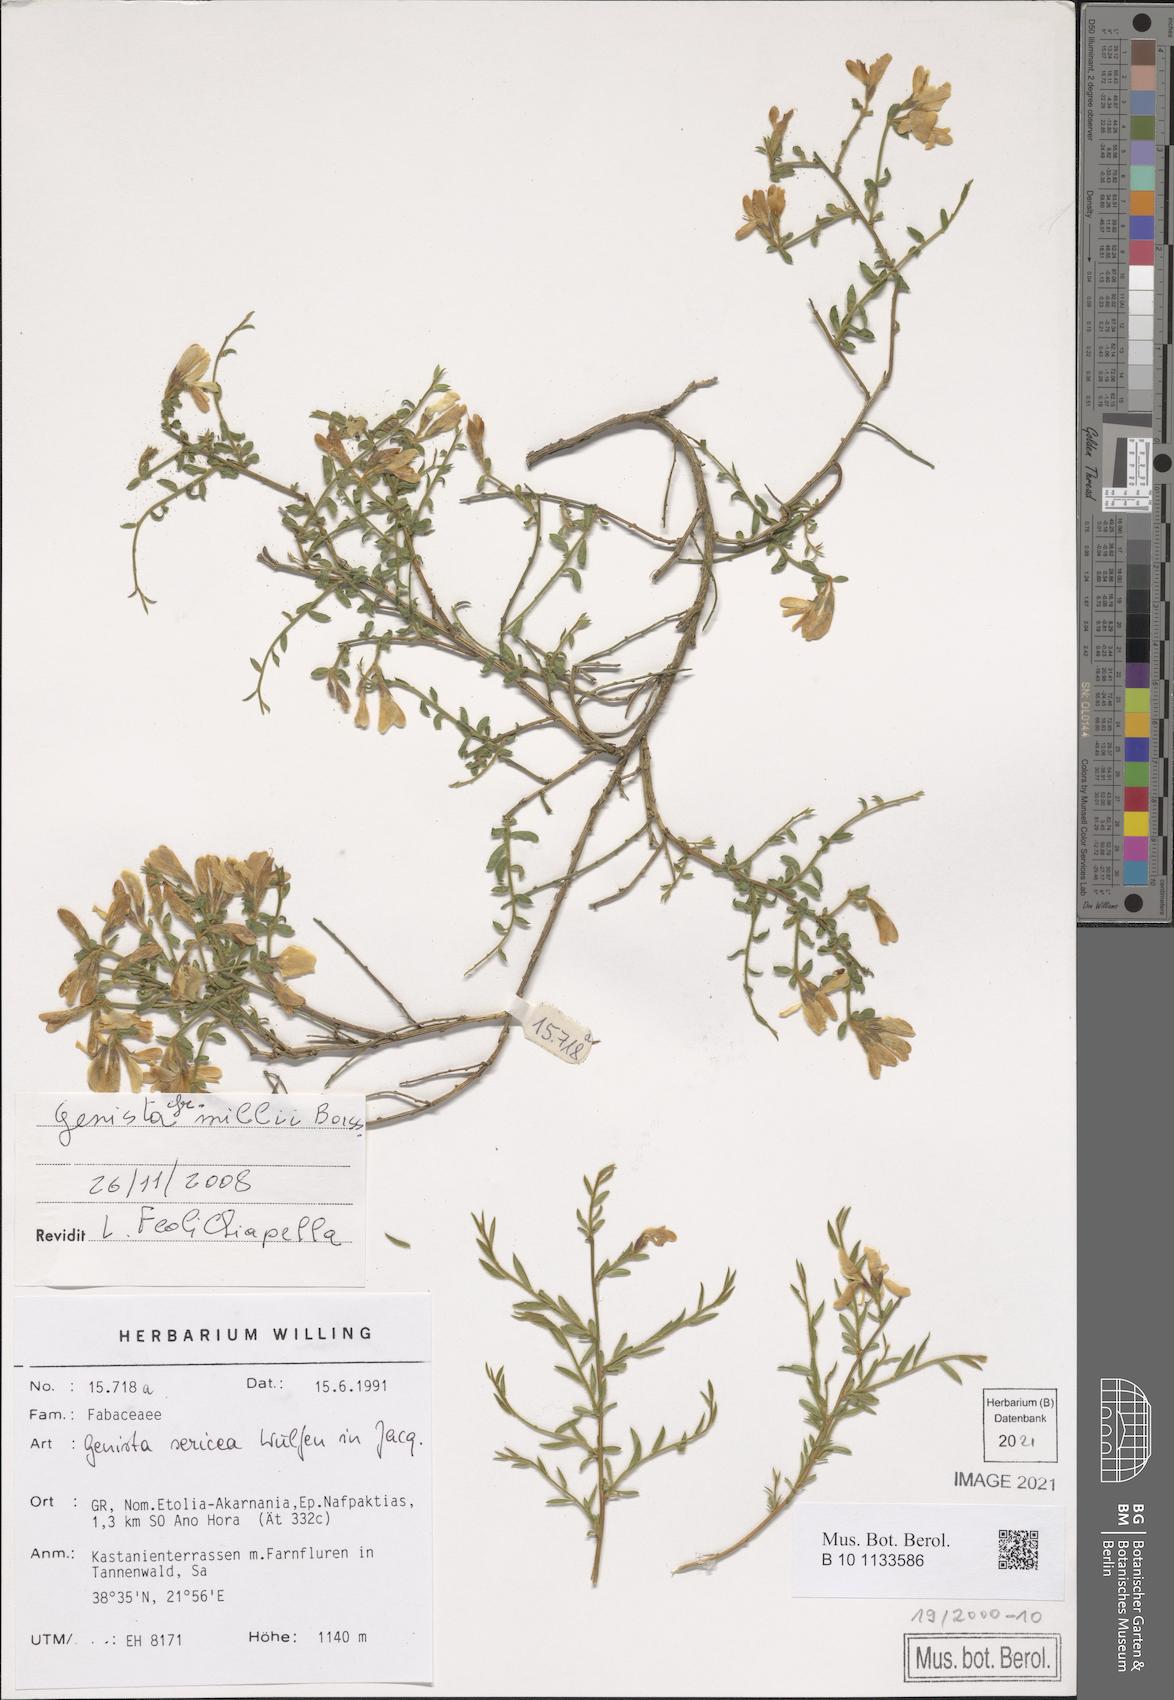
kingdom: Plantae
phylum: Tracheophyta
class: Magnoliopsida
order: Fabales
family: Fabaceae
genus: Genista
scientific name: Genista millii
